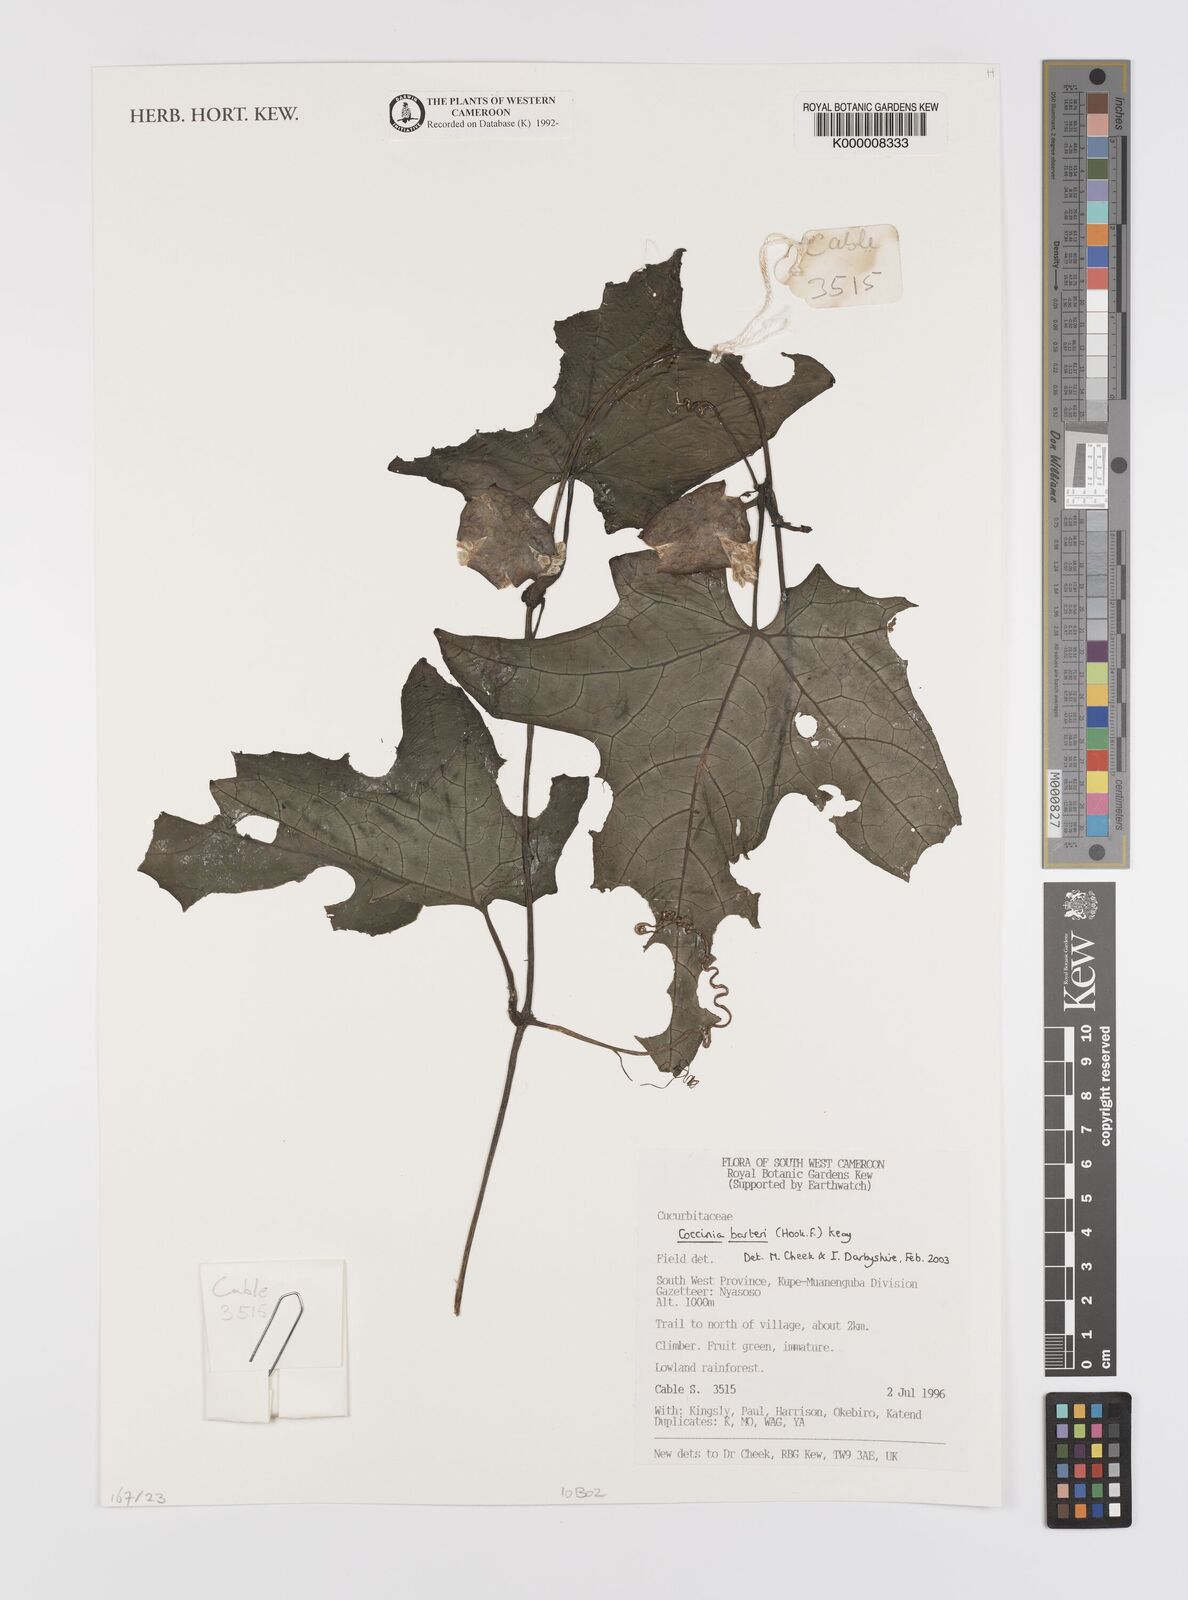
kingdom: Plantae
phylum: Tracheophyta
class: Magnoliopsida
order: Cucurbitales
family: Cucurbitaceae
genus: Coccinia
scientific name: Coccinia barteri
